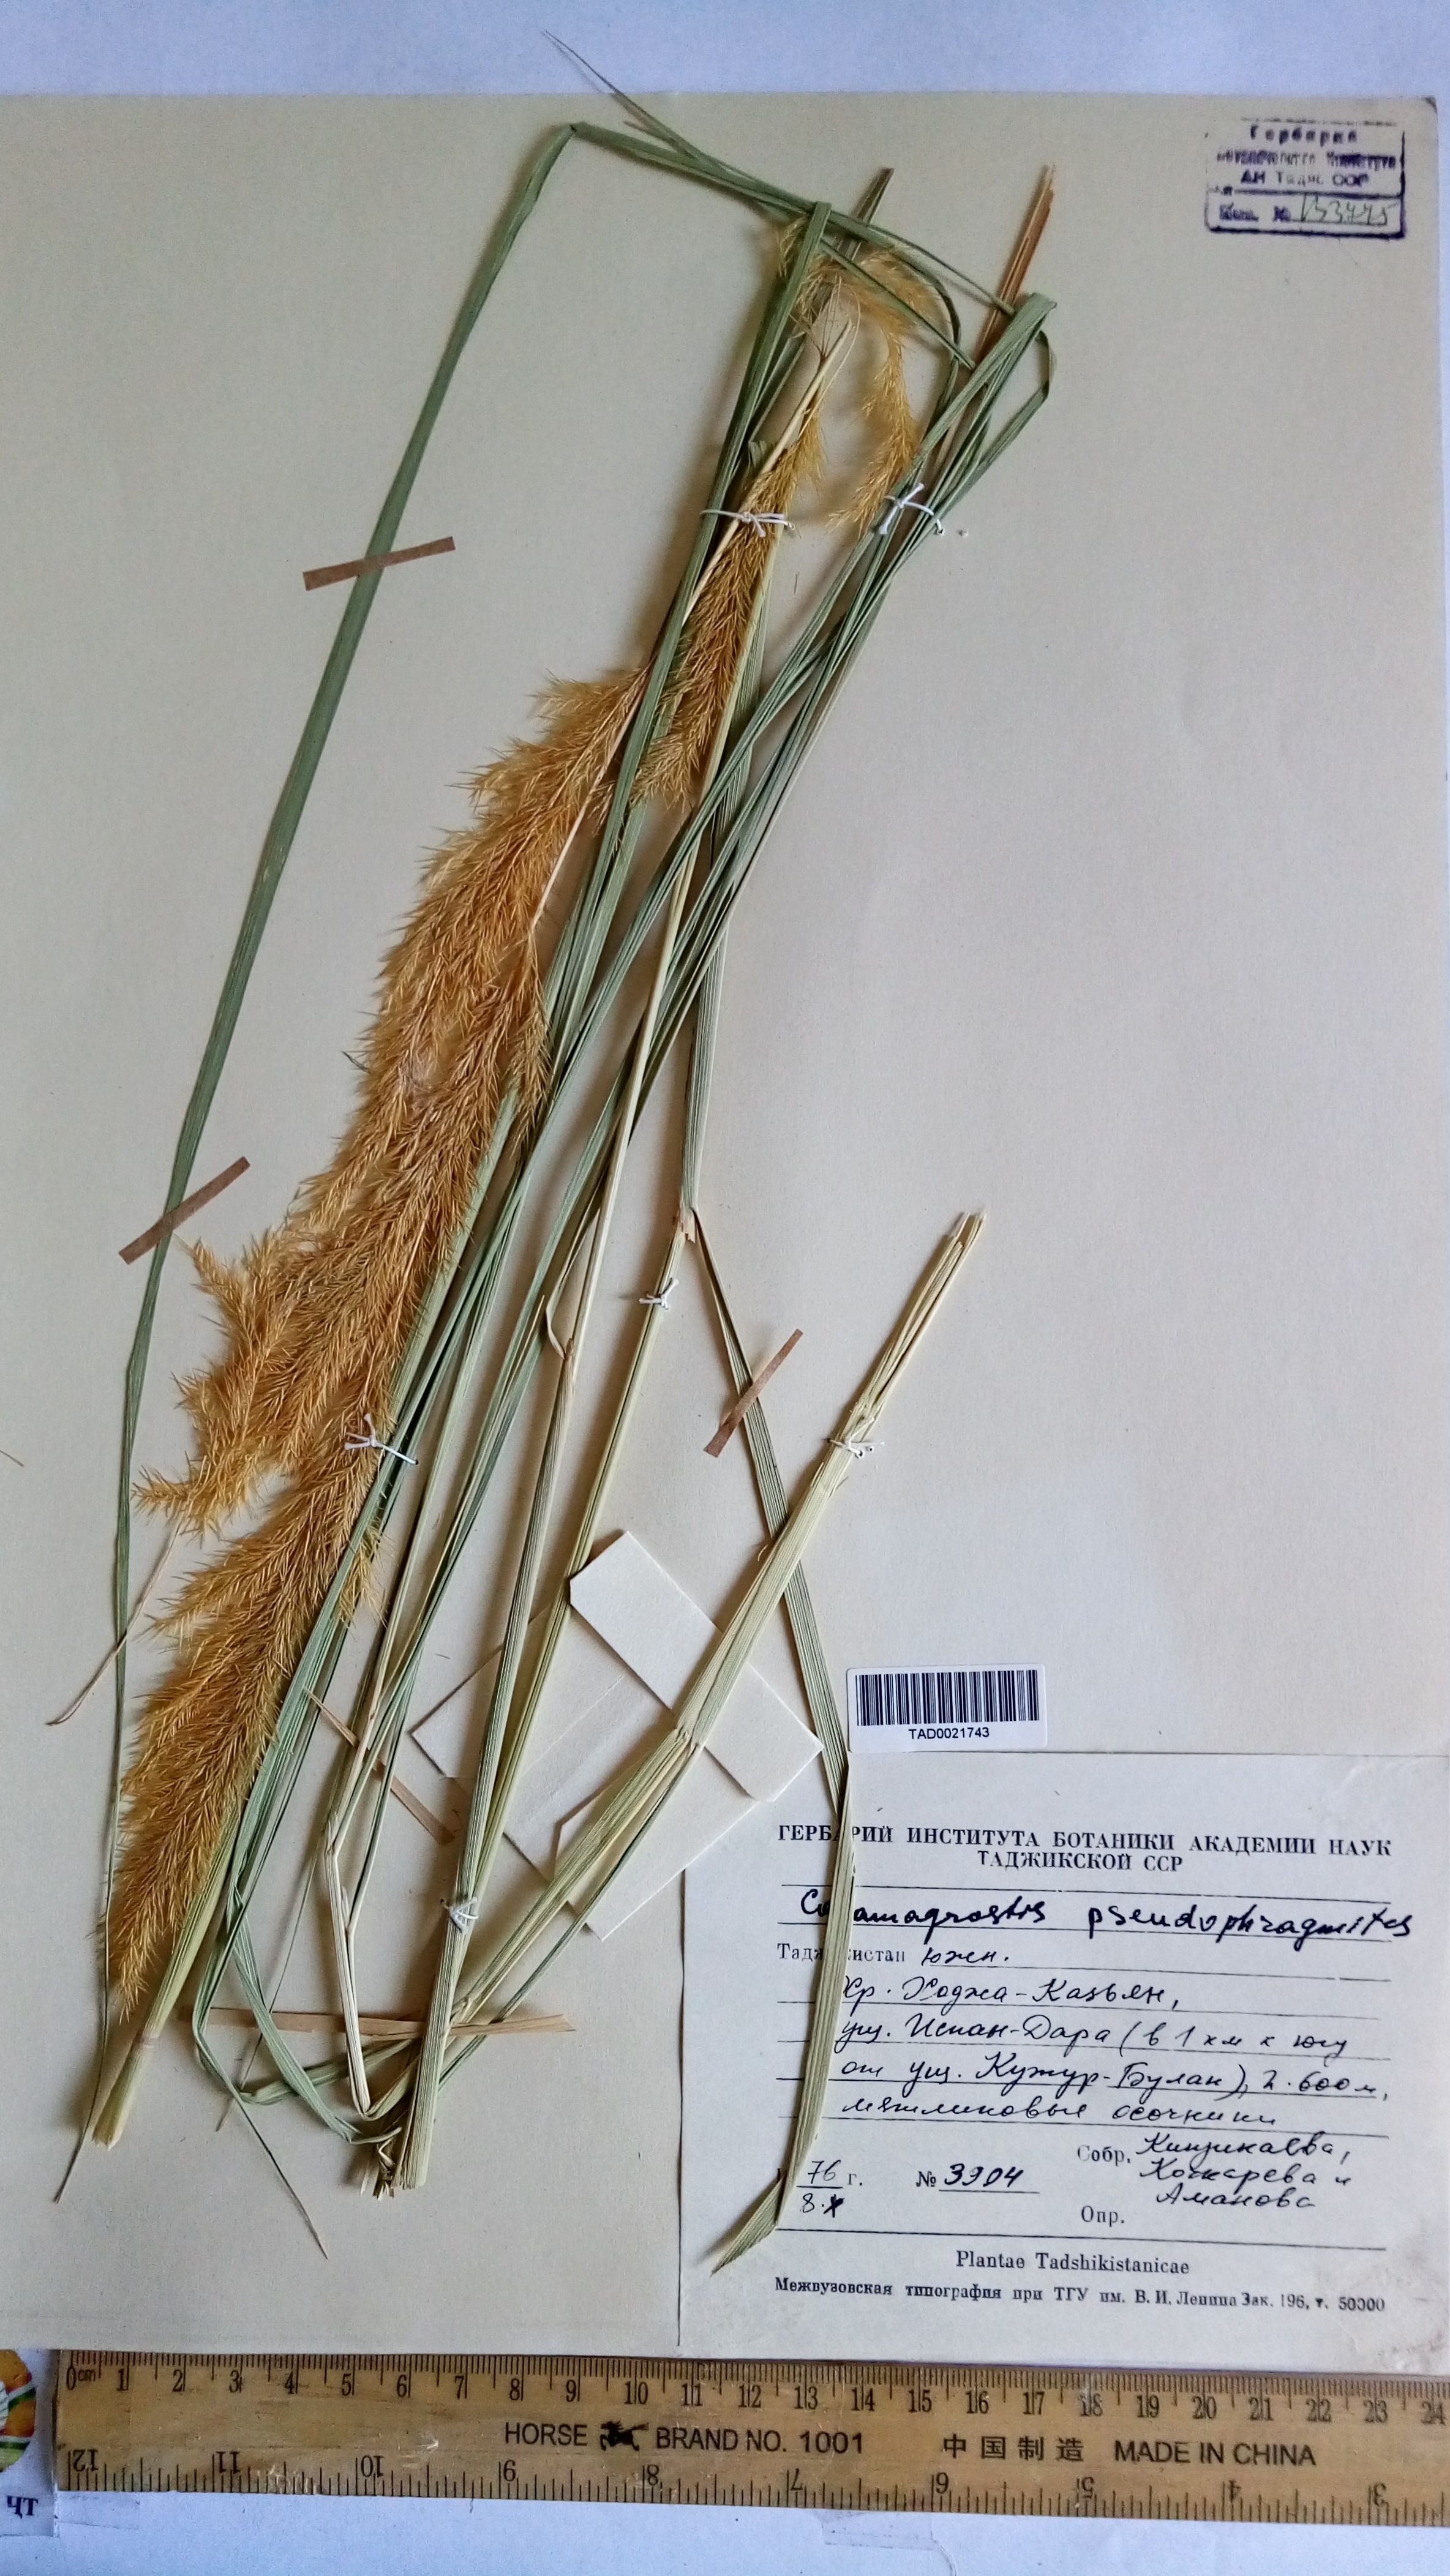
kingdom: Plantae
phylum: Tracheophyta
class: Liliopsida
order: Poales
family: Poaceae
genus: Calamagrostis
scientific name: Calamagrostis pseudophragmites
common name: Coastal small-reed
